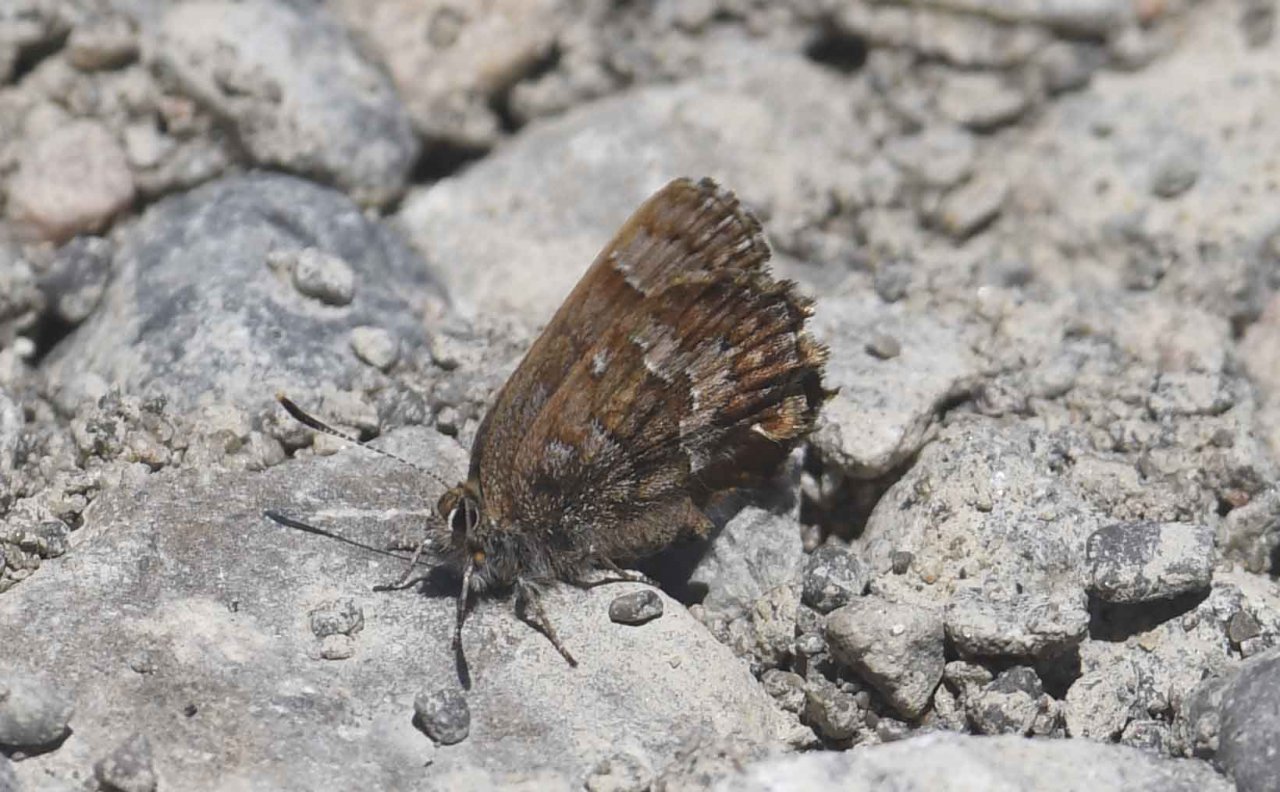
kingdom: Animalia
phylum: Arthropoda
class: Insecta
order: Lepidoptera
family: Lycaenidae
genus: Incisalia
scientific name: Incisalia niphon
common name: Eastern Pine Elfin
